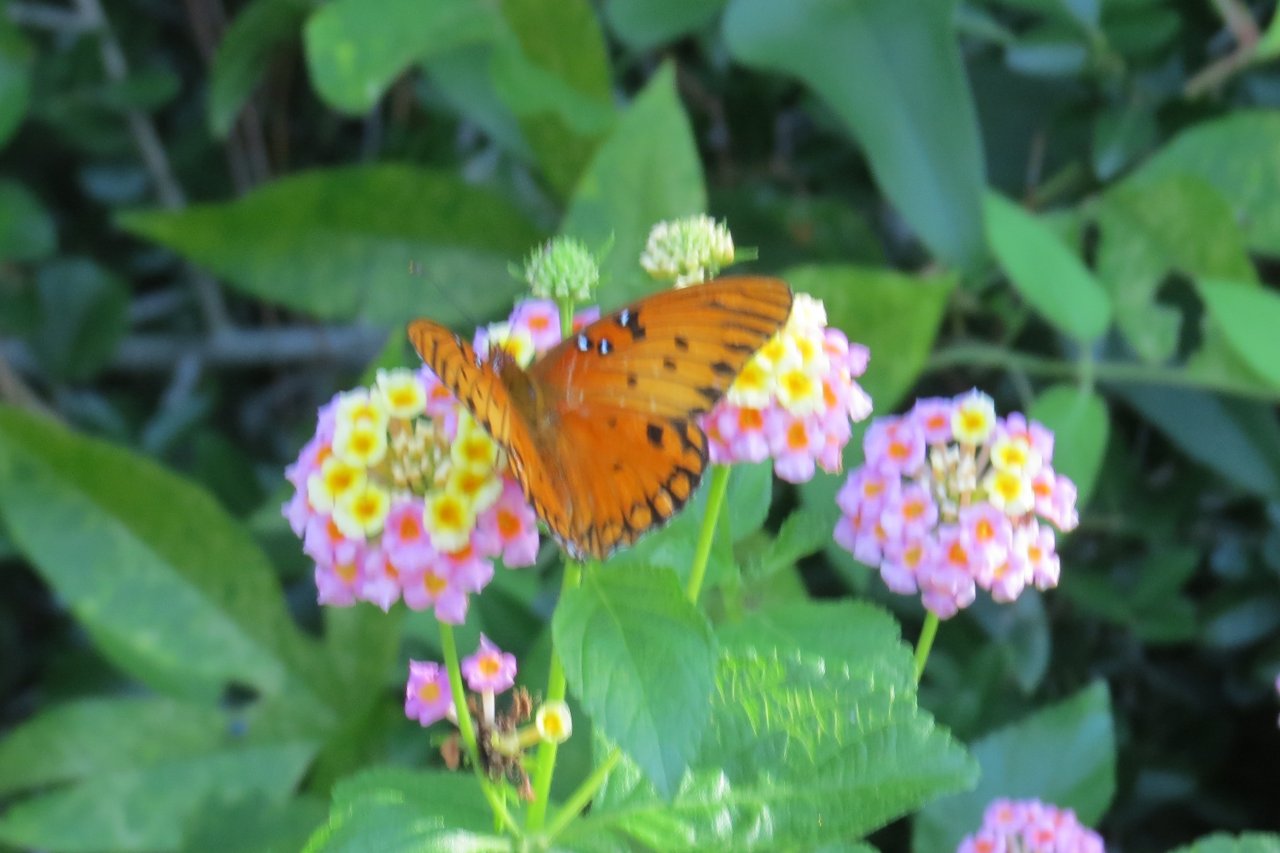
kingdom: Animalia
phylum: Arthropoda
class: Insecta
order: Lepidoptera
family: Nymphalidae
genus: Dione
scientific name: Dione vanillae
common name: Gulf Fritillary
